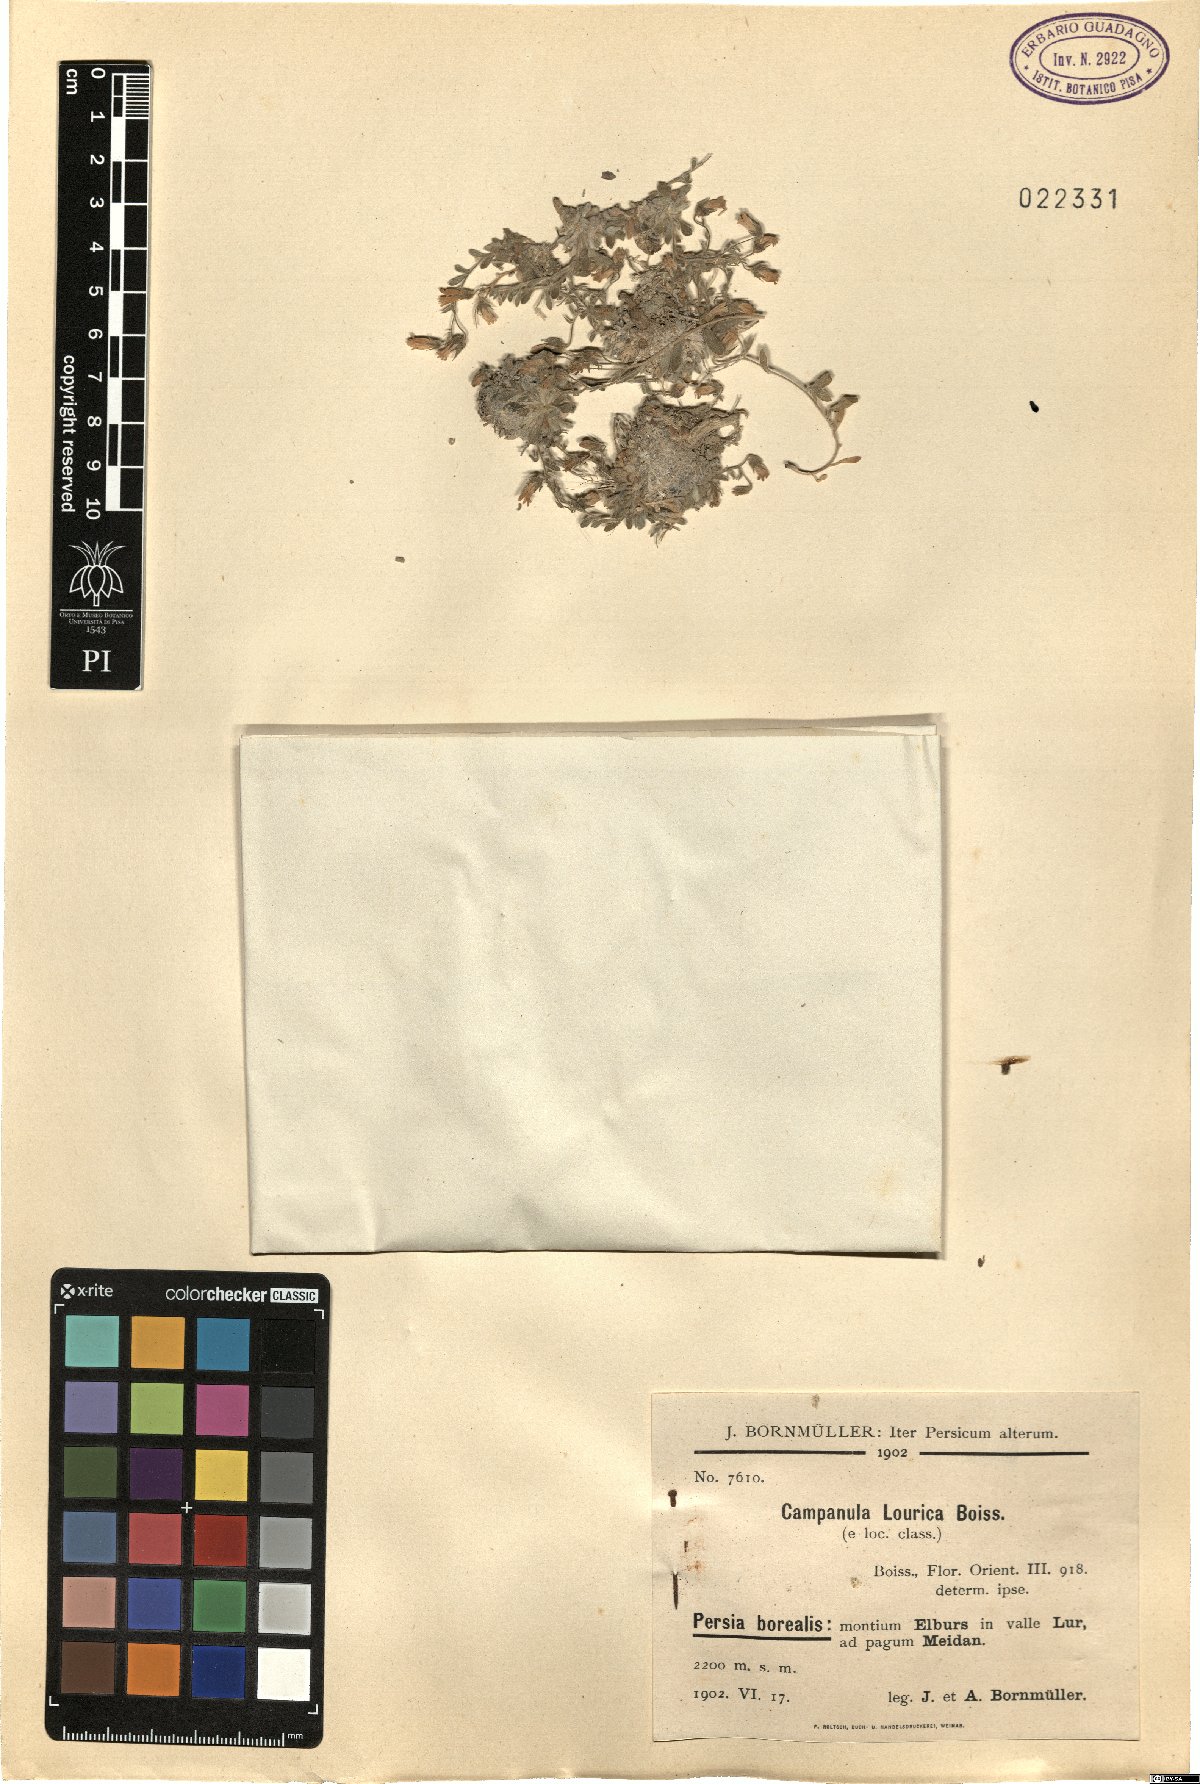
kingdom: Plantae
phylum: Tracheophyta
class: Magnoliopsida
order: Asterales
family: Campanulaceae
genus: Campanula
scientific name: Campanula lourica
